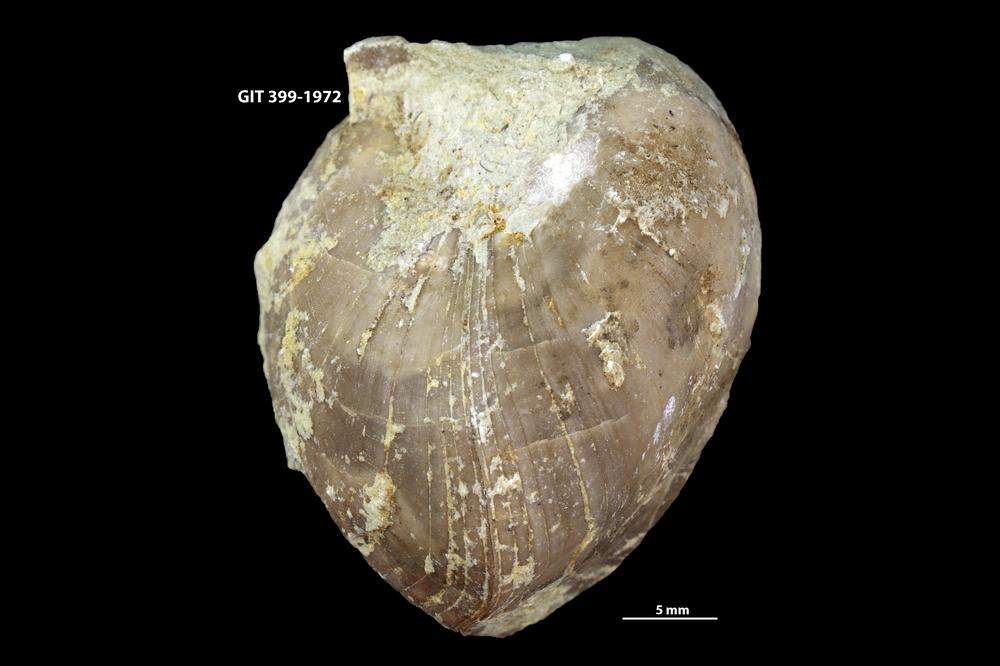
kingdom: Animalia
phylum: Brachiopoda
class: Rhynchonellata
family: Porambonitidae
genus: Porambonites
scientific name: Porambonites
